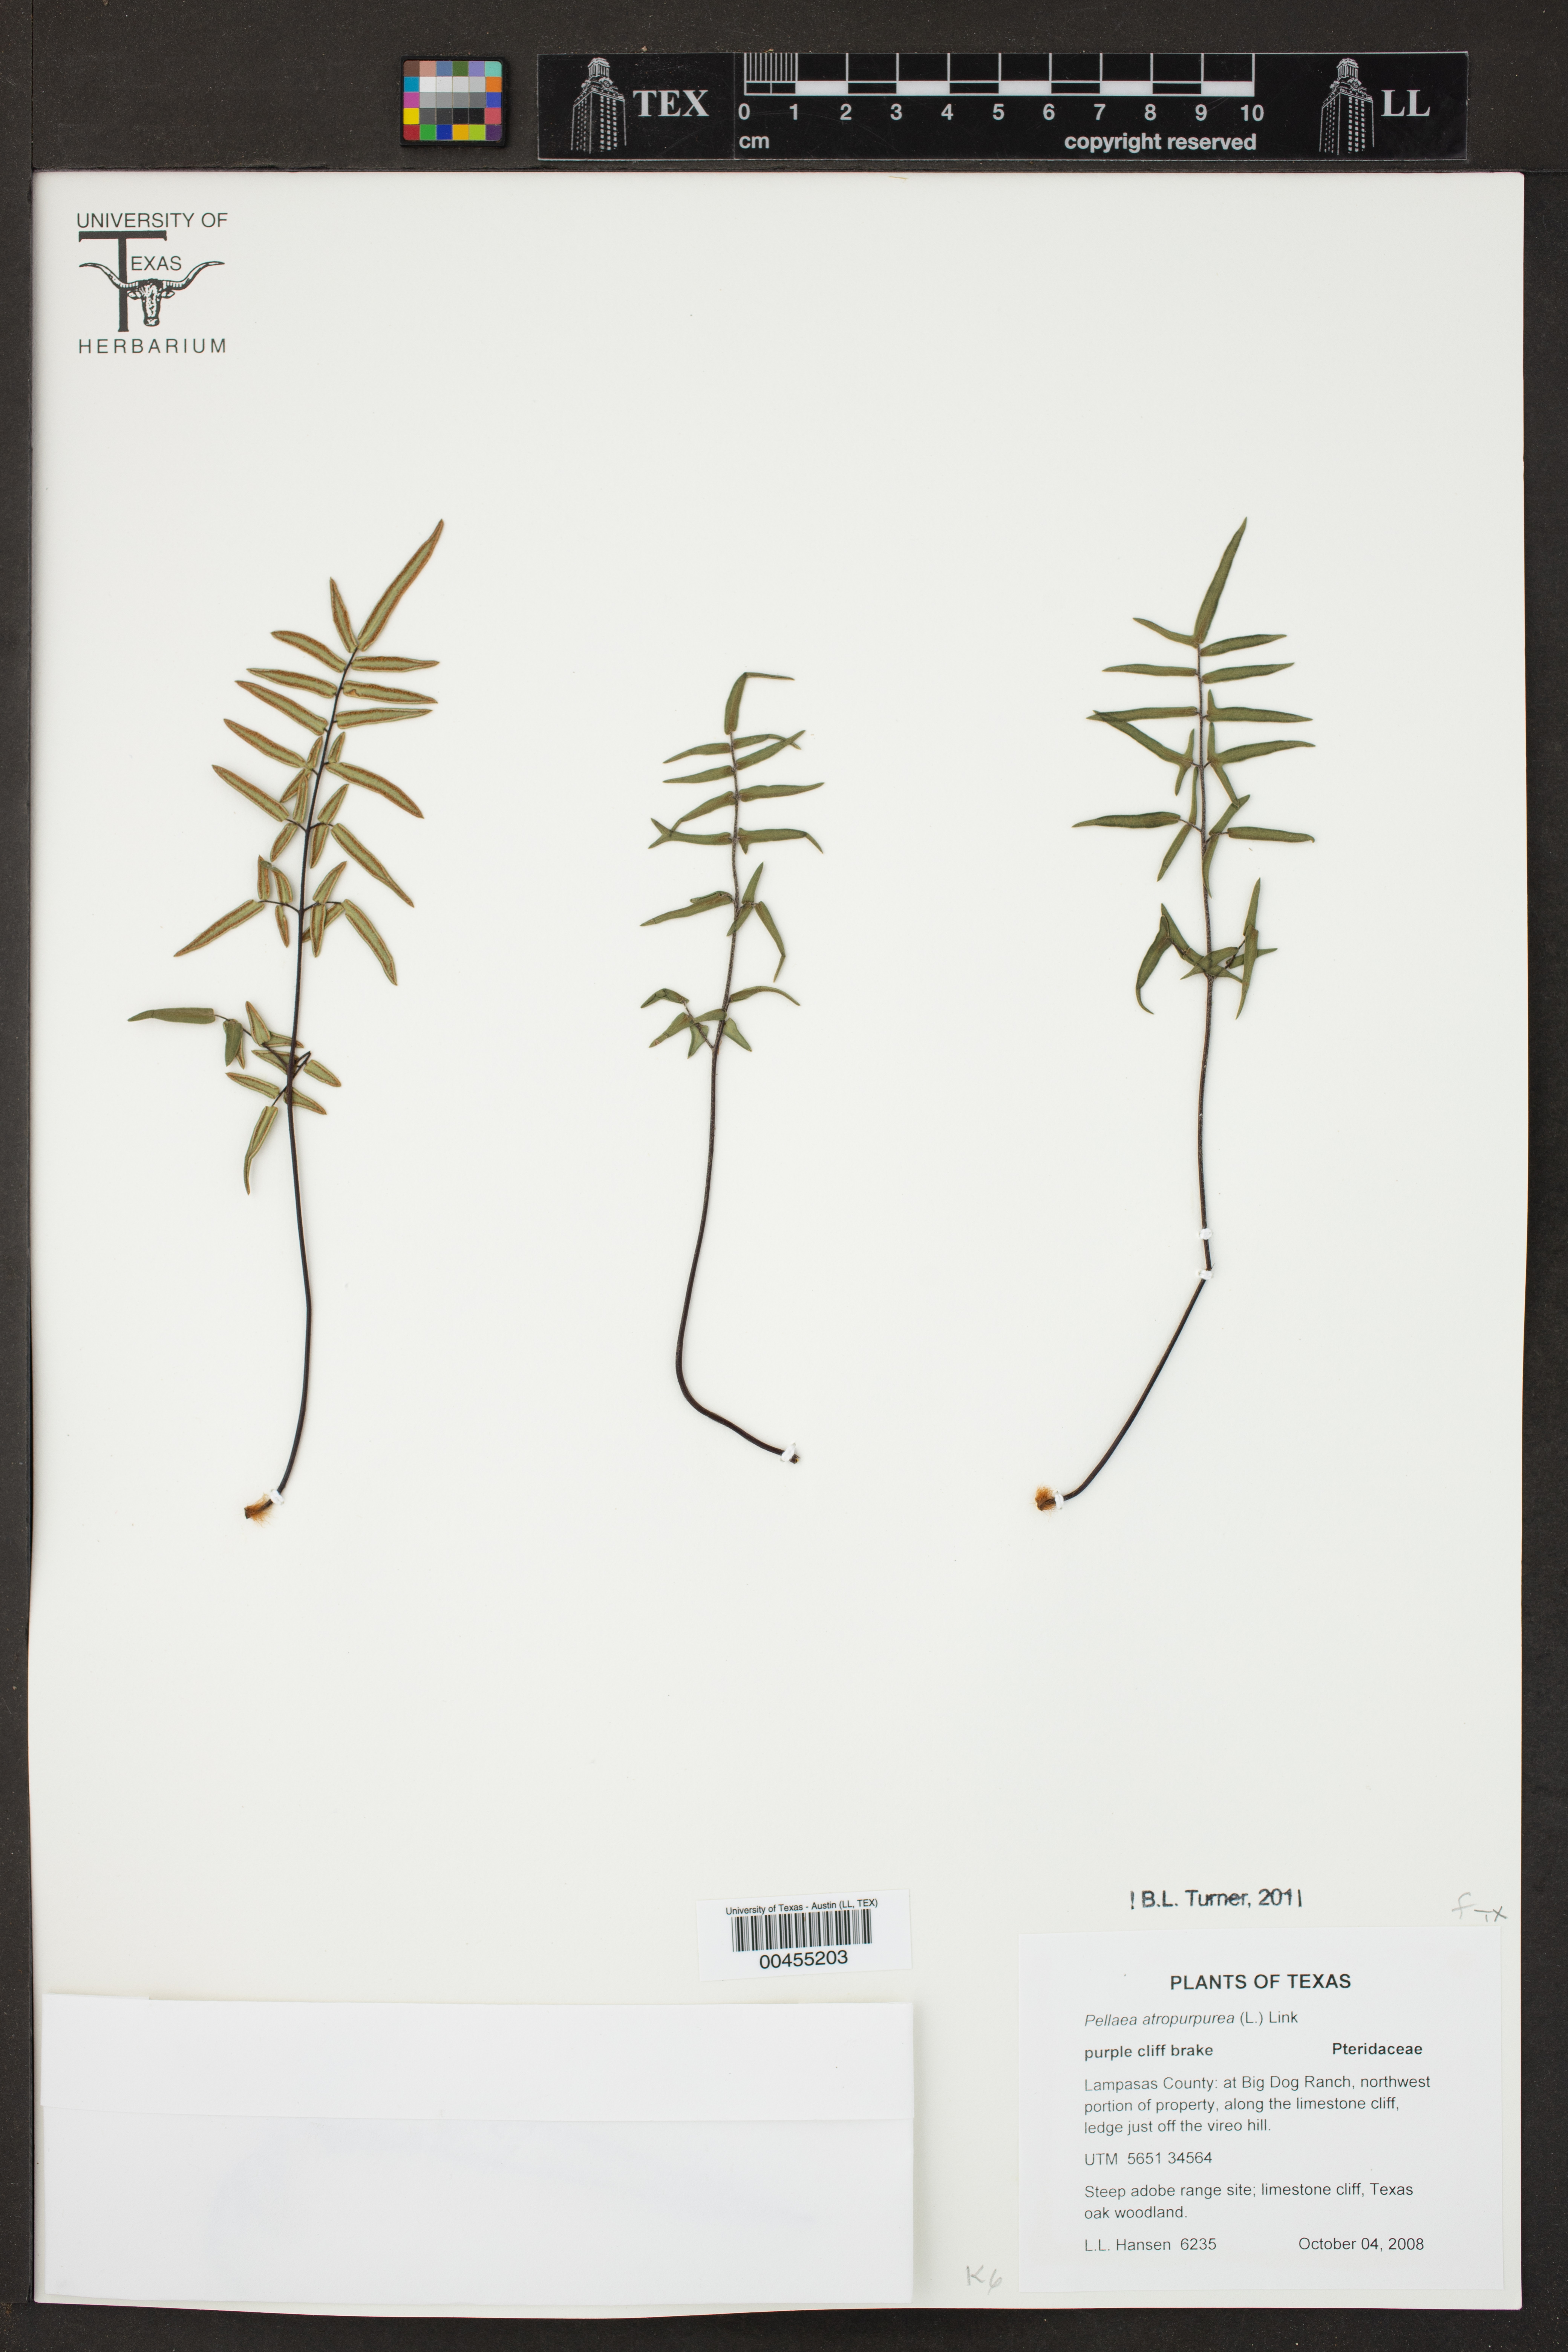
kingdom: Plantae
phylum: Tracheophyta
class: Polypodiopsida
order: Polypodiales
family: Pteridaceae
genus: Pellaea
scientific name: Pellaea atropurpurea
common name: Hairy cliffbrake
